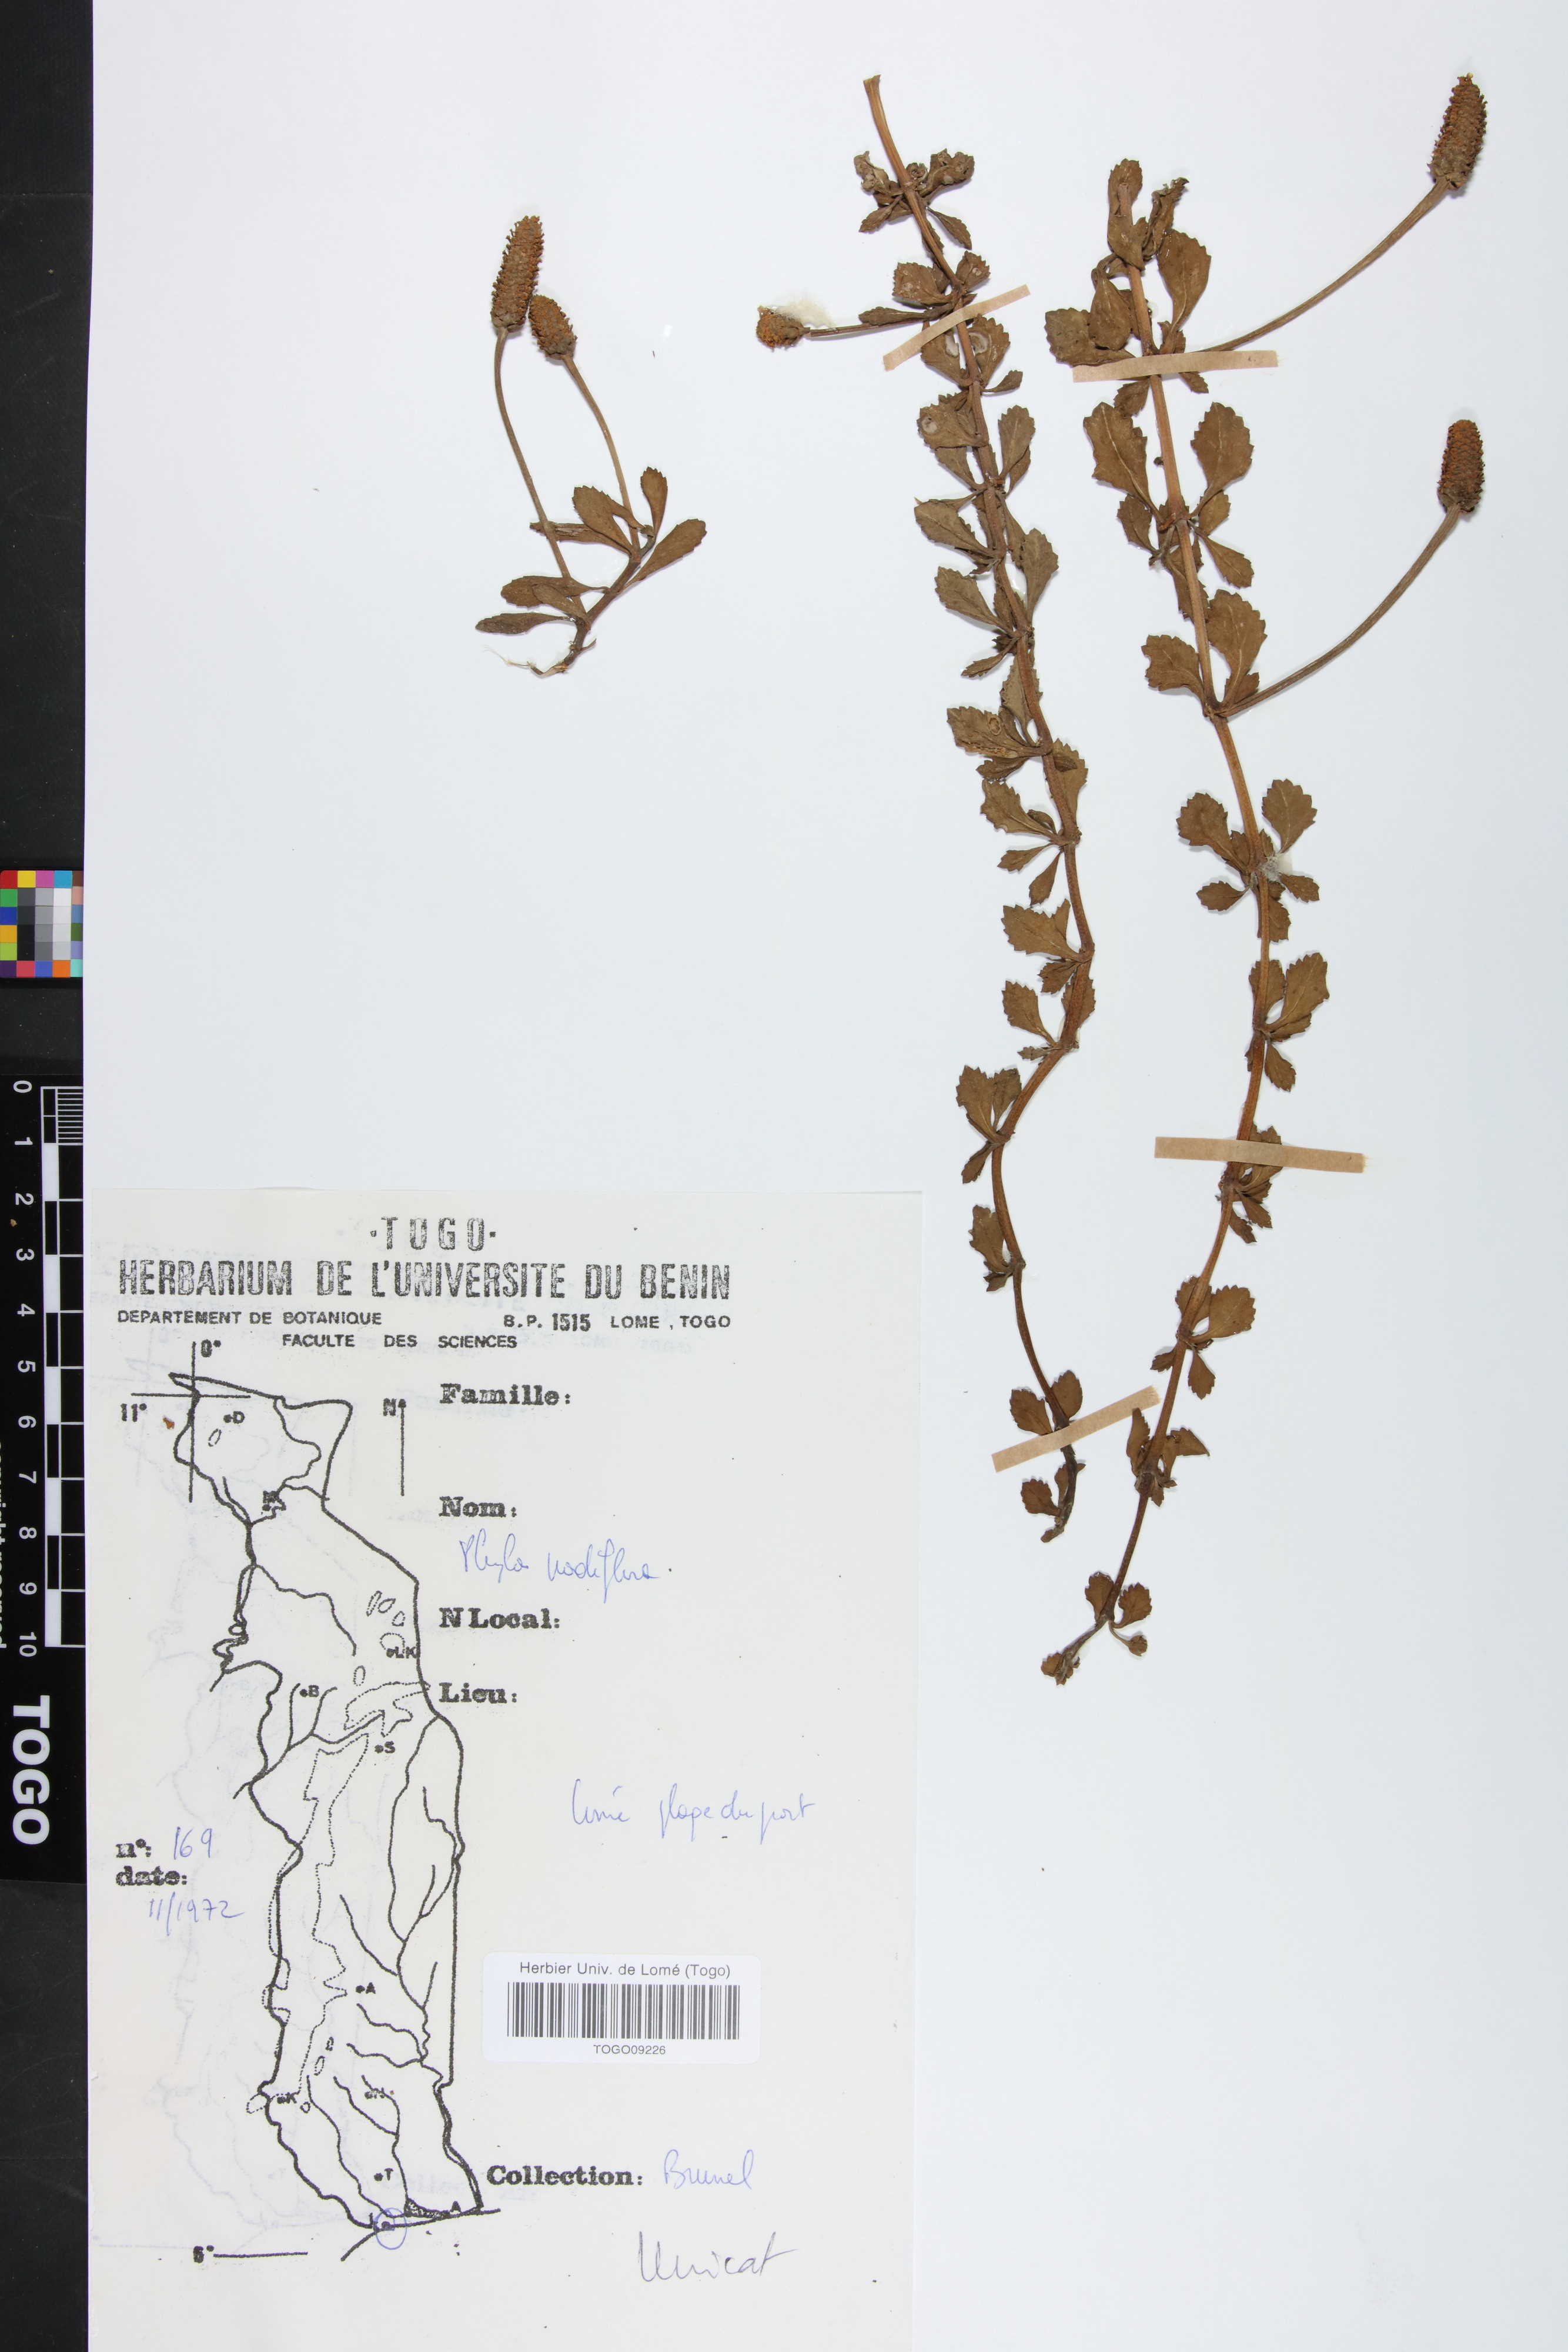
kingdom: Plantae
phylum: Tracheophyta
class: Magnoliopsida
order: Lamiales
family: Verbenaceae
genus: Phyla
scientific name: Phyla nodiflora
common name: Frogfruit
